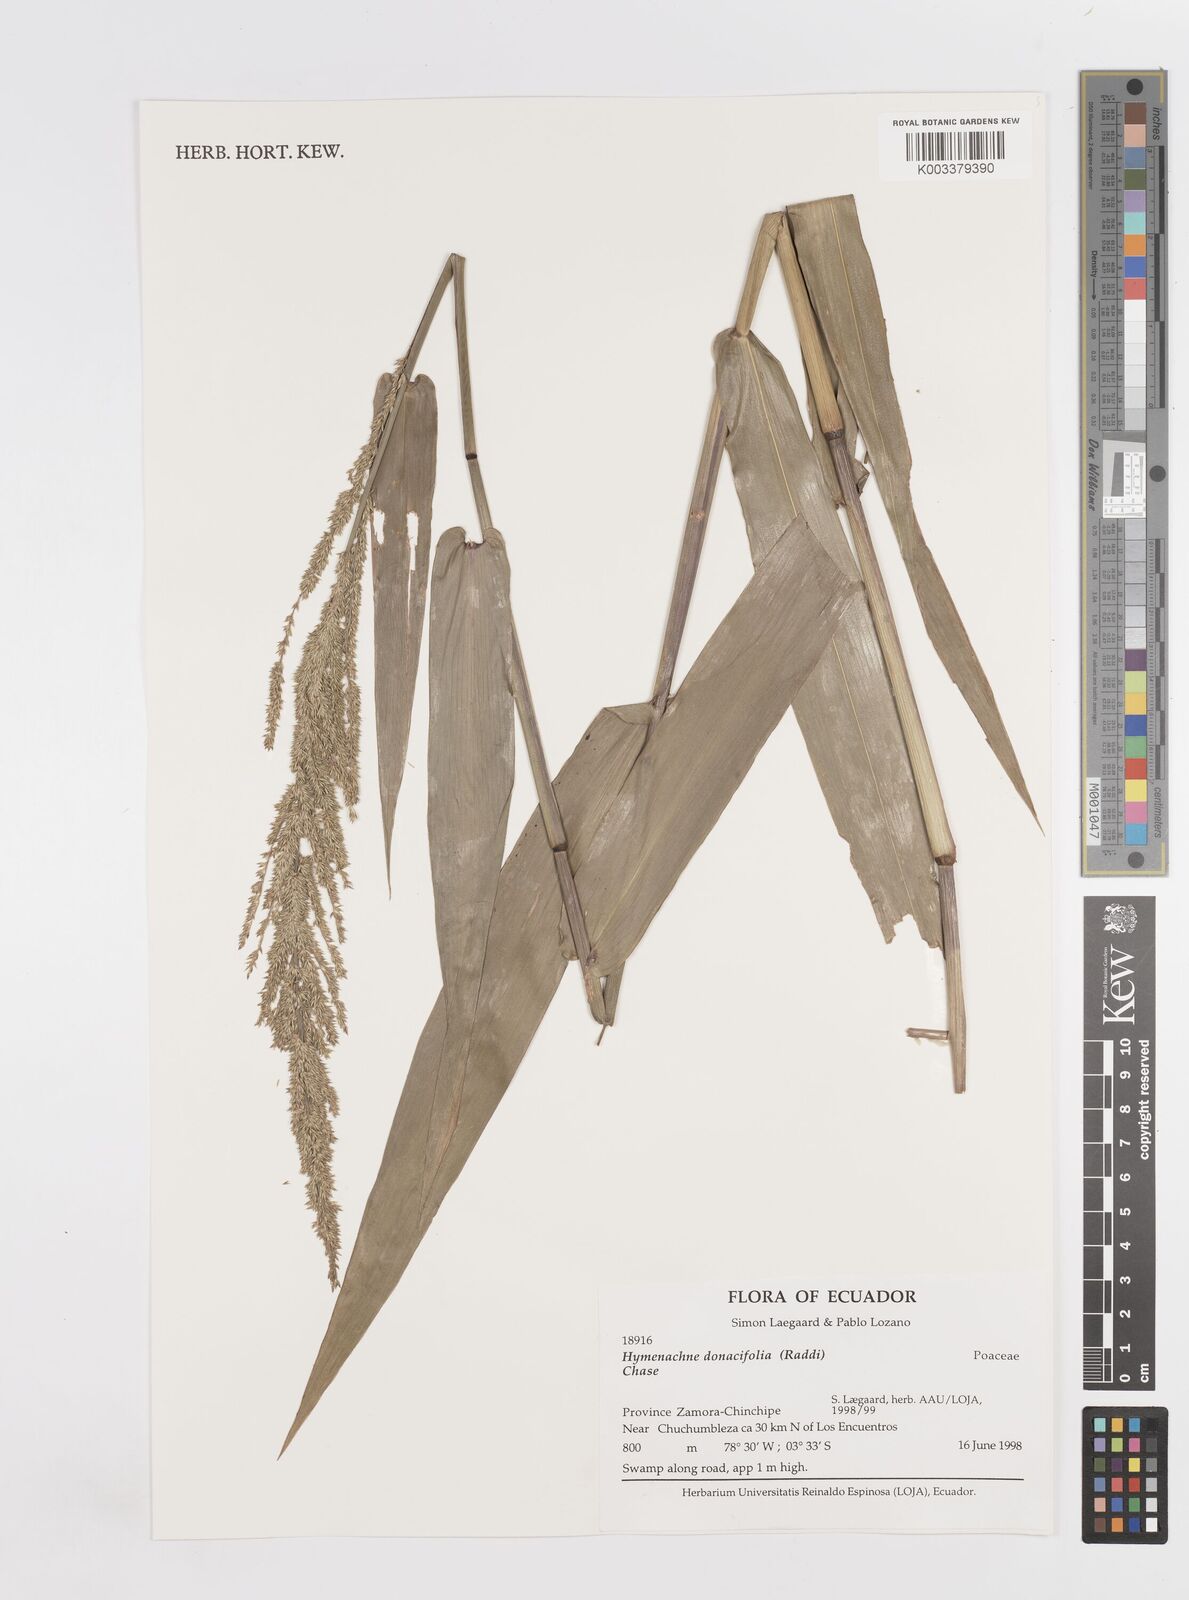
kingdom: Plantae
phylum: Tracheophyta
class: Liliopsida
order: Poales
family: Poaceae
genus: Hymenachne
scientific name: Hymenachne donacifolia
